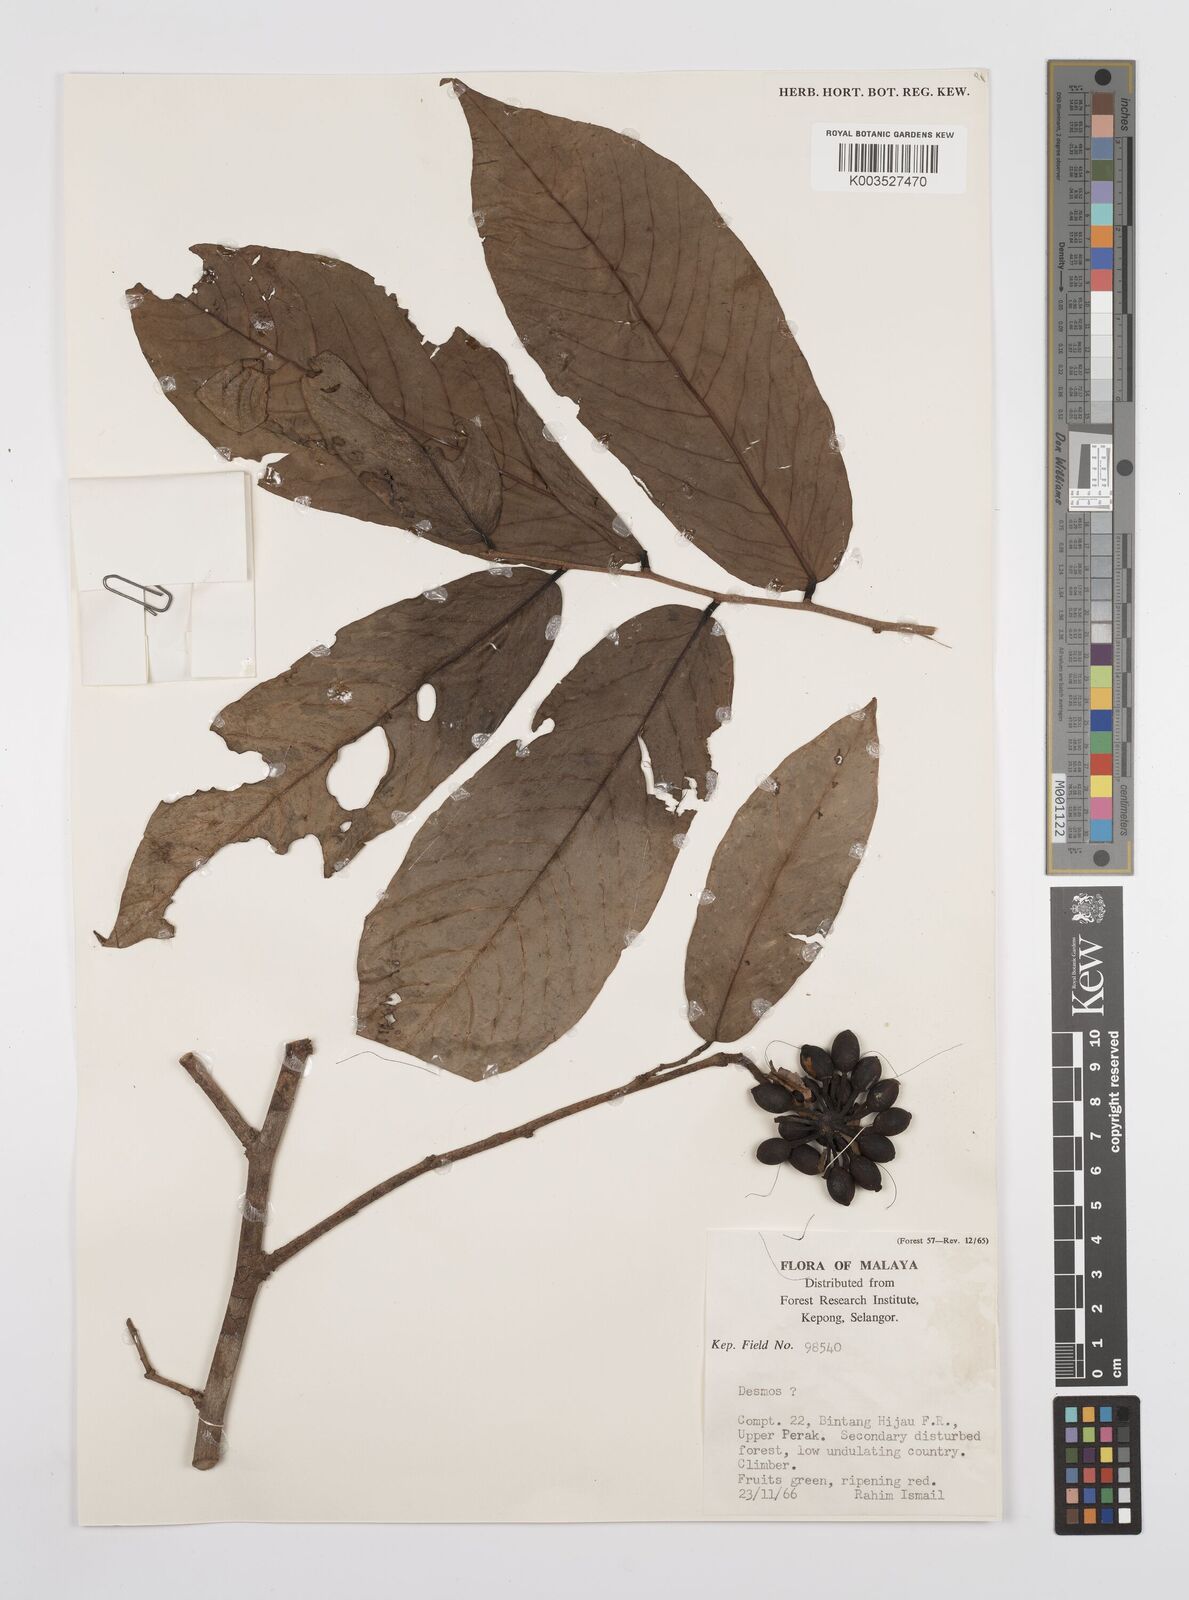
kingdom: Plantae
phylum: Tracheophyta
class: Magnoliopsida
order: Magnoliales
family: Annonaceae
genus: Desmos
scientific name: Desmos
